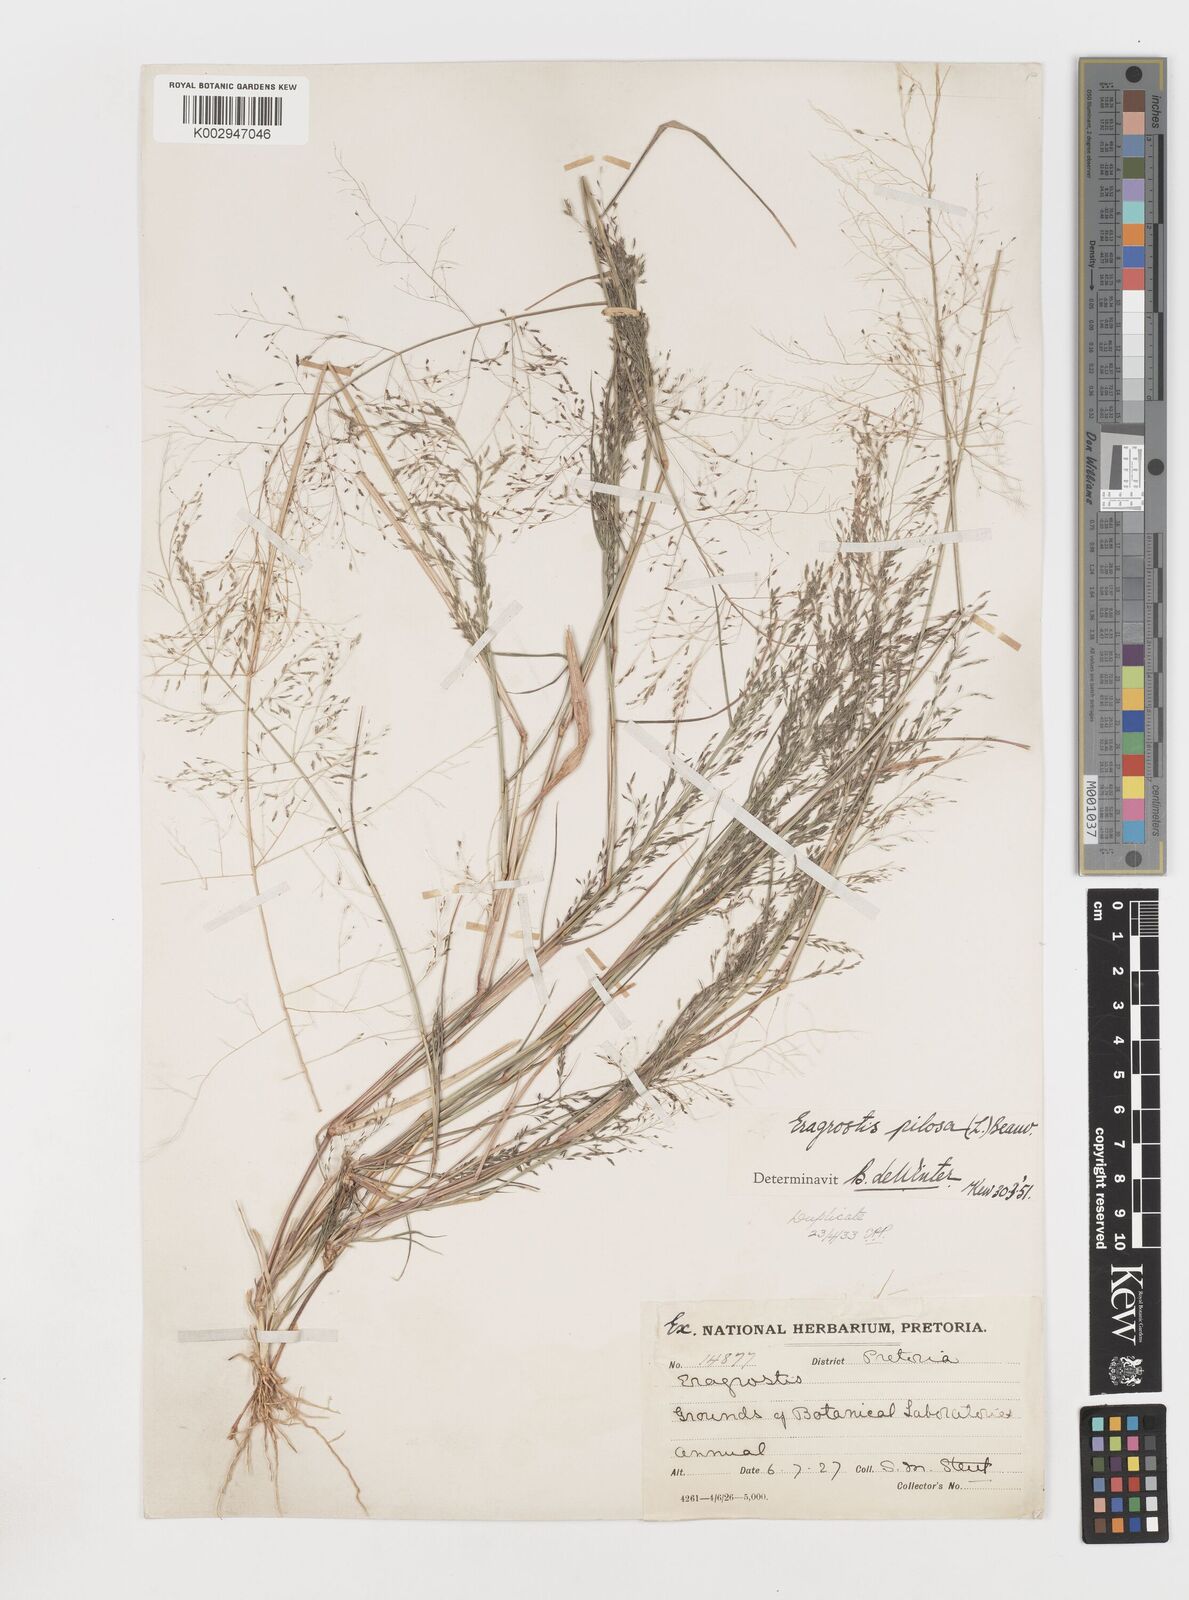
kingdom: Plantae
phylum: Tracheophyta
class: Liliopsida
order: Poales
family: Poaceae
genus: Eragrostis
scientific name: Eragrostis pilosa
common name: Indian lovegrass
